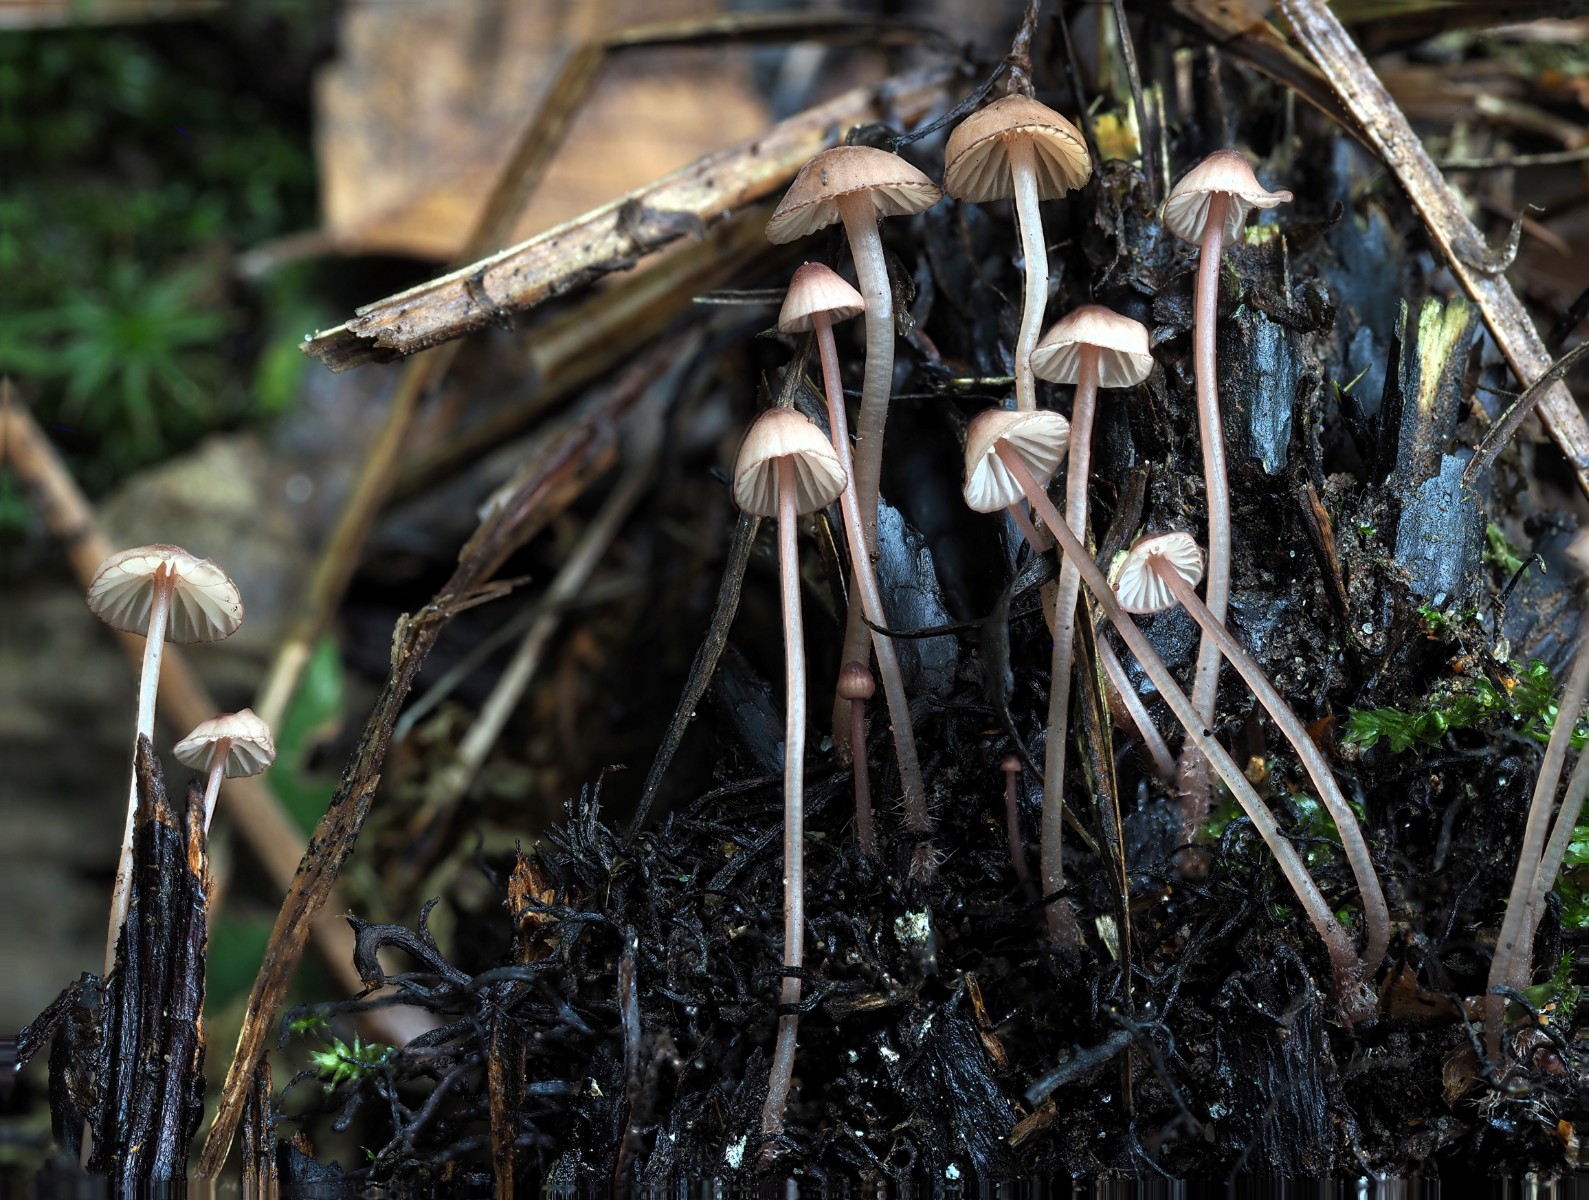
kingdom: Fungi
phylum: Basidiomycota
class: Agaricomycetes
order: Agaricales
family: Mycenaceae
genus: Mycena
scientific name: Mycena sanguinolenta
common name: rødmælket huesvamp
